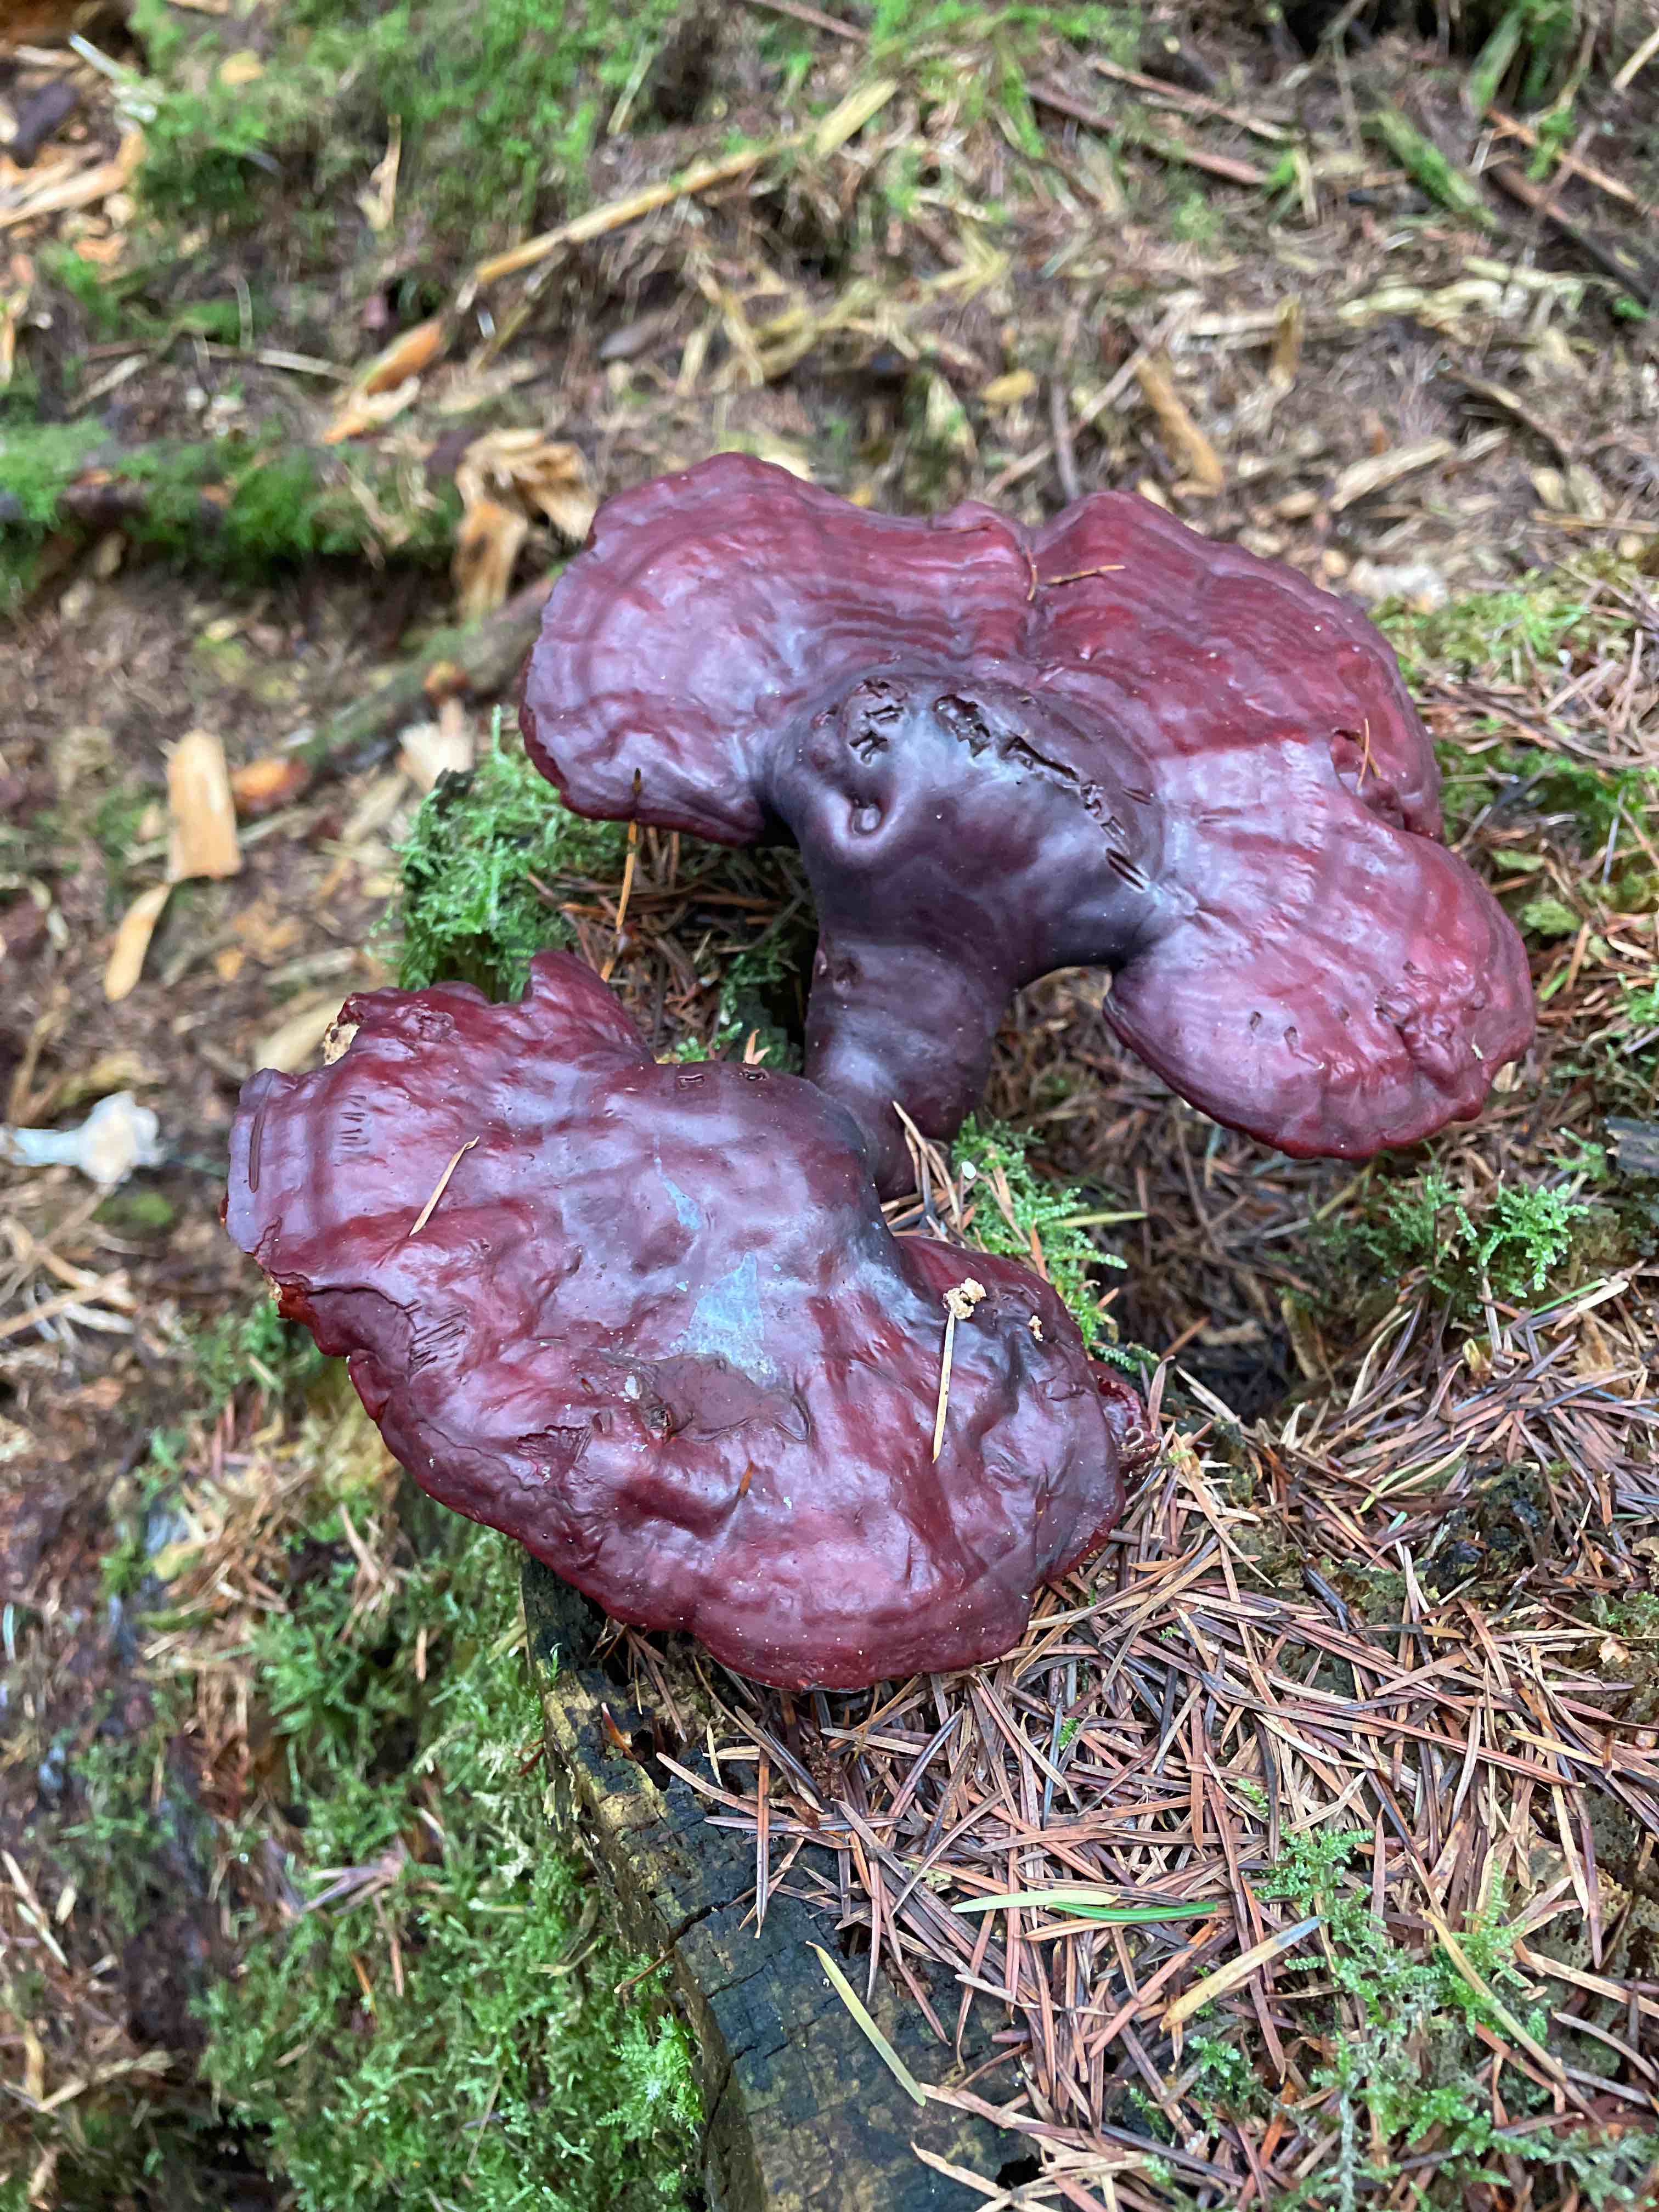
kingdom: Fungi
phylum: Basidiomycota
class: Agaricomycetes
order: Polyporales
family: Polyporaceae
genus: Ganoderma
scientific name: Ganoderma lucidum
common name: skinnende lakporesvamp
